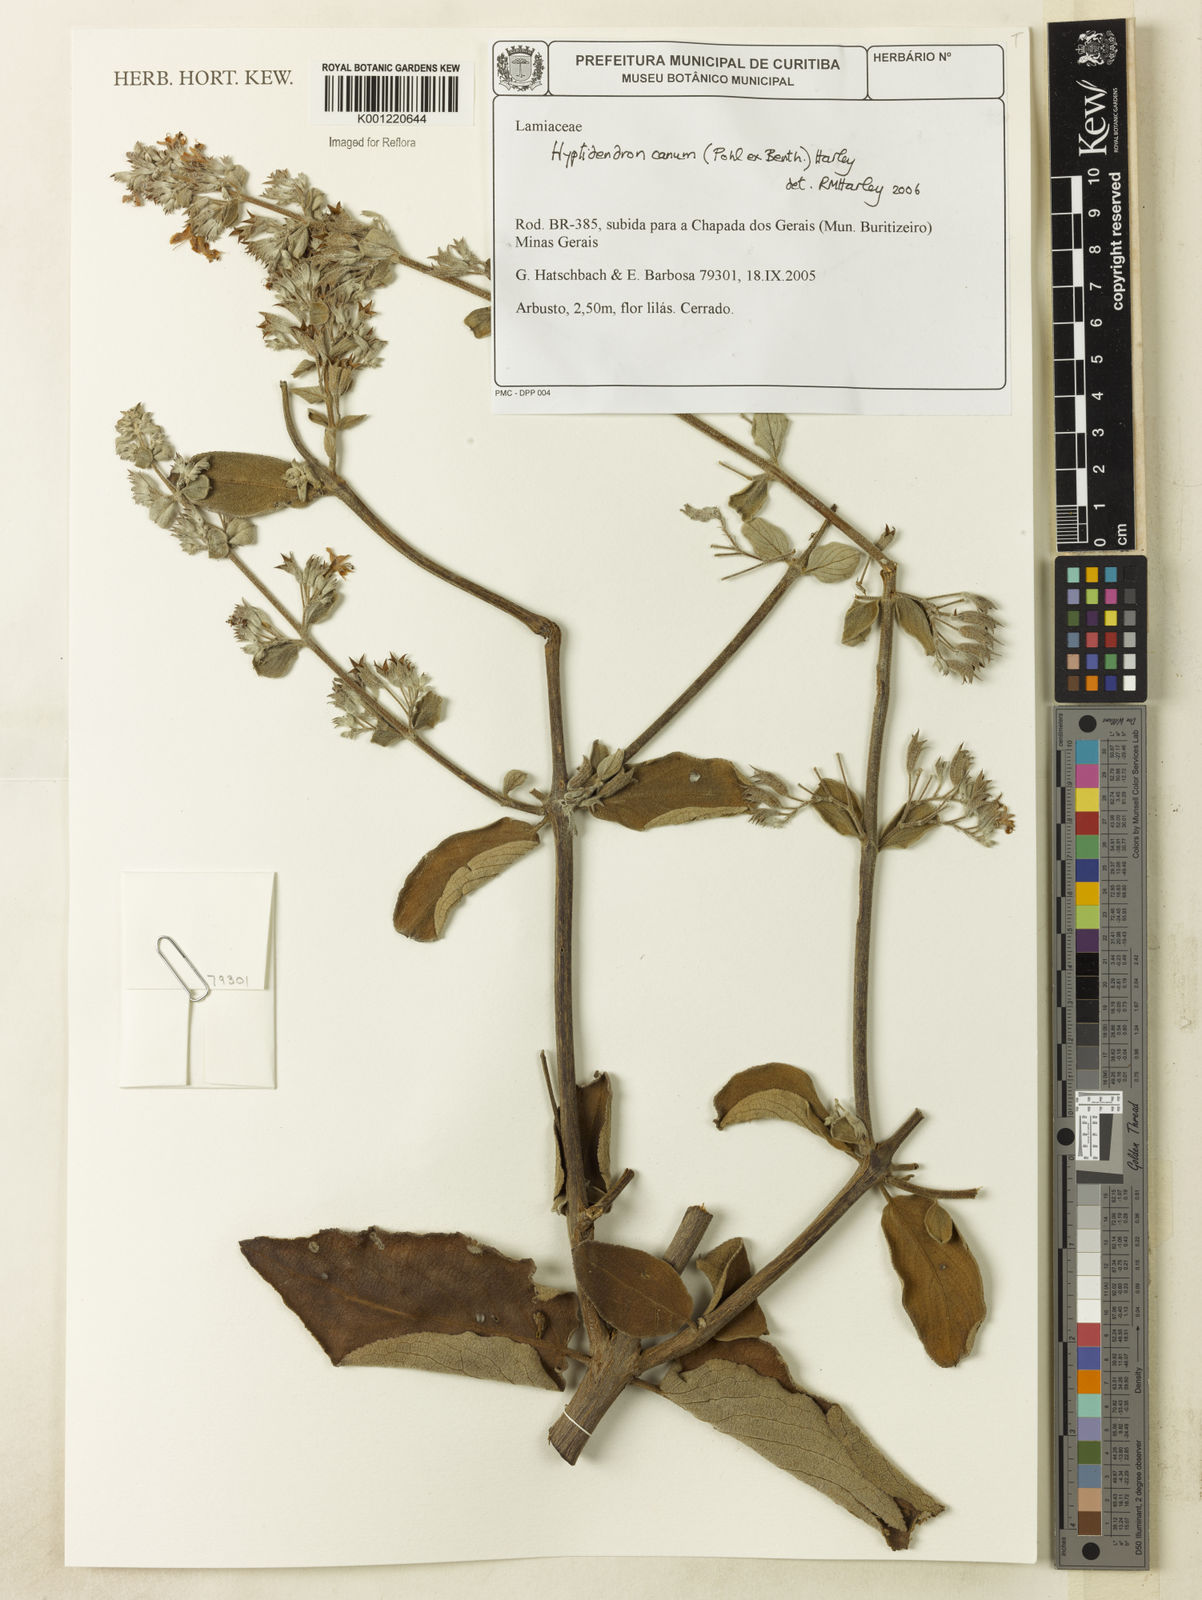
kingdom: Plantae
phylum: Tracheophyta
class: Magnoliopsida
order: Lamiales
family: Lamiaceae
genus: Hyptidendron
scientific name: Hyptidendron canum
